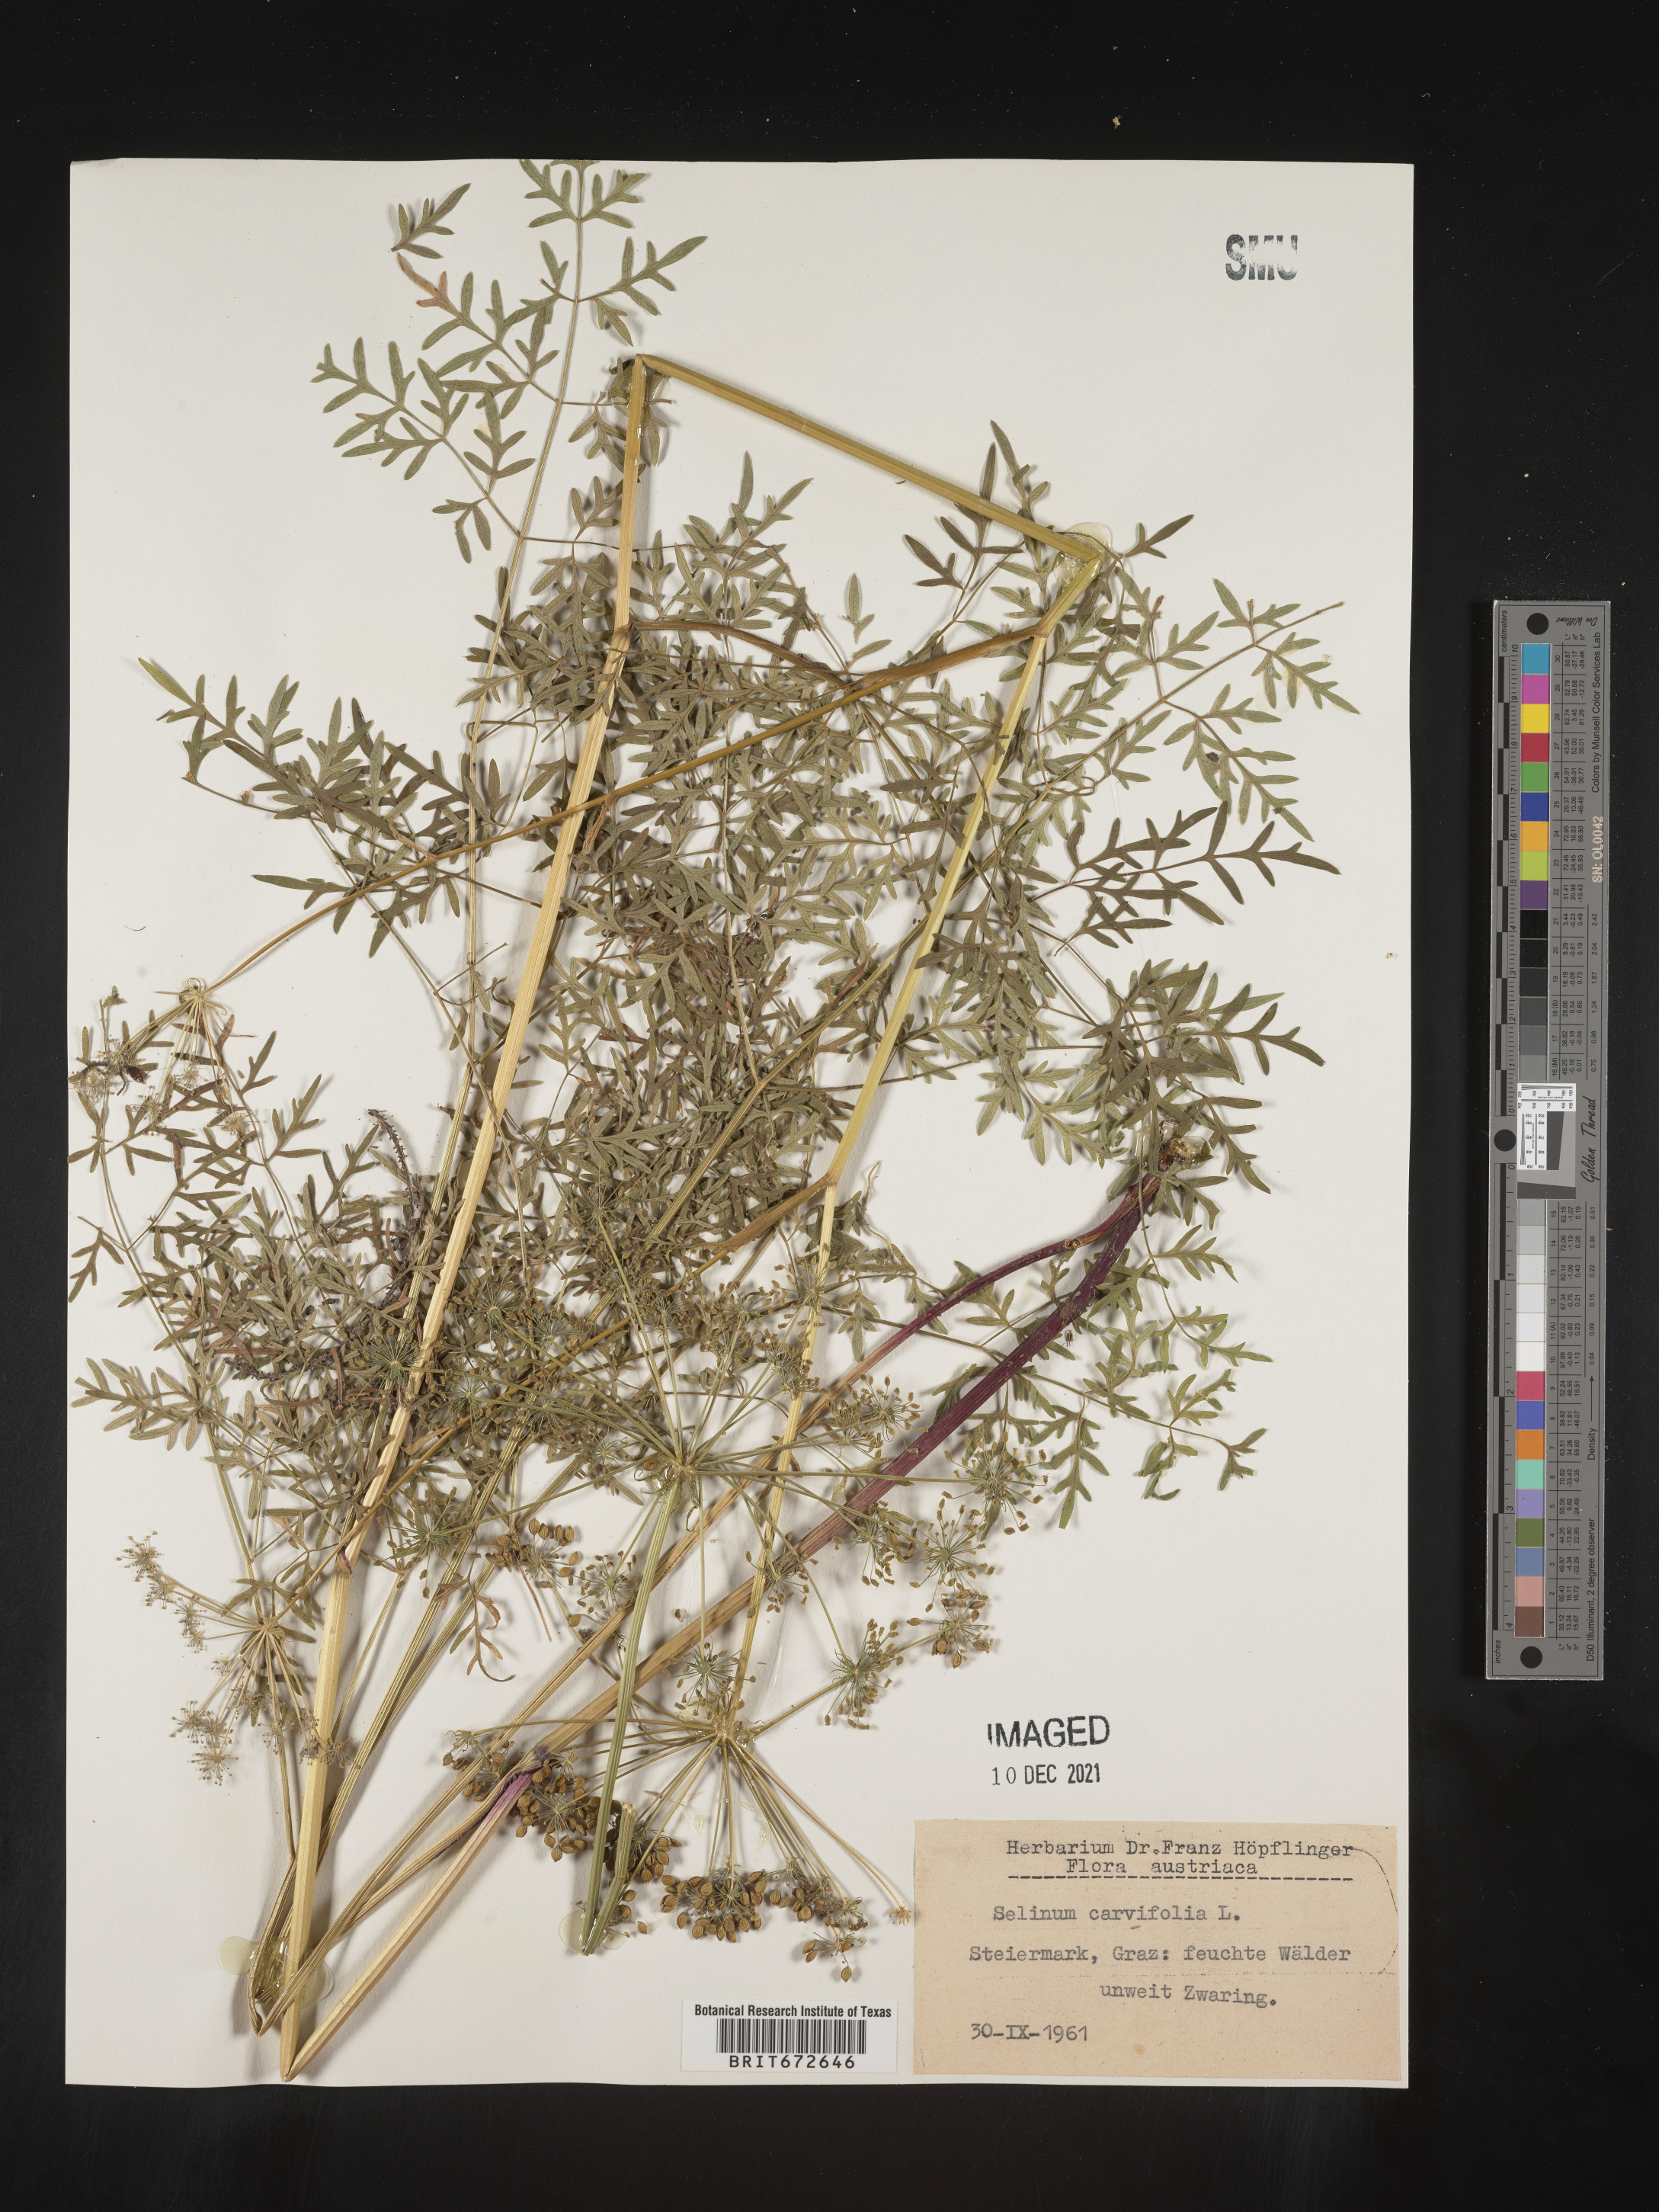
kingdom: Plantae
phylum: Tracheophyta
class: Magnoliopsida
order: Apiales
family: Apiaceae
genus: Selinum
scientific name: Selinum
